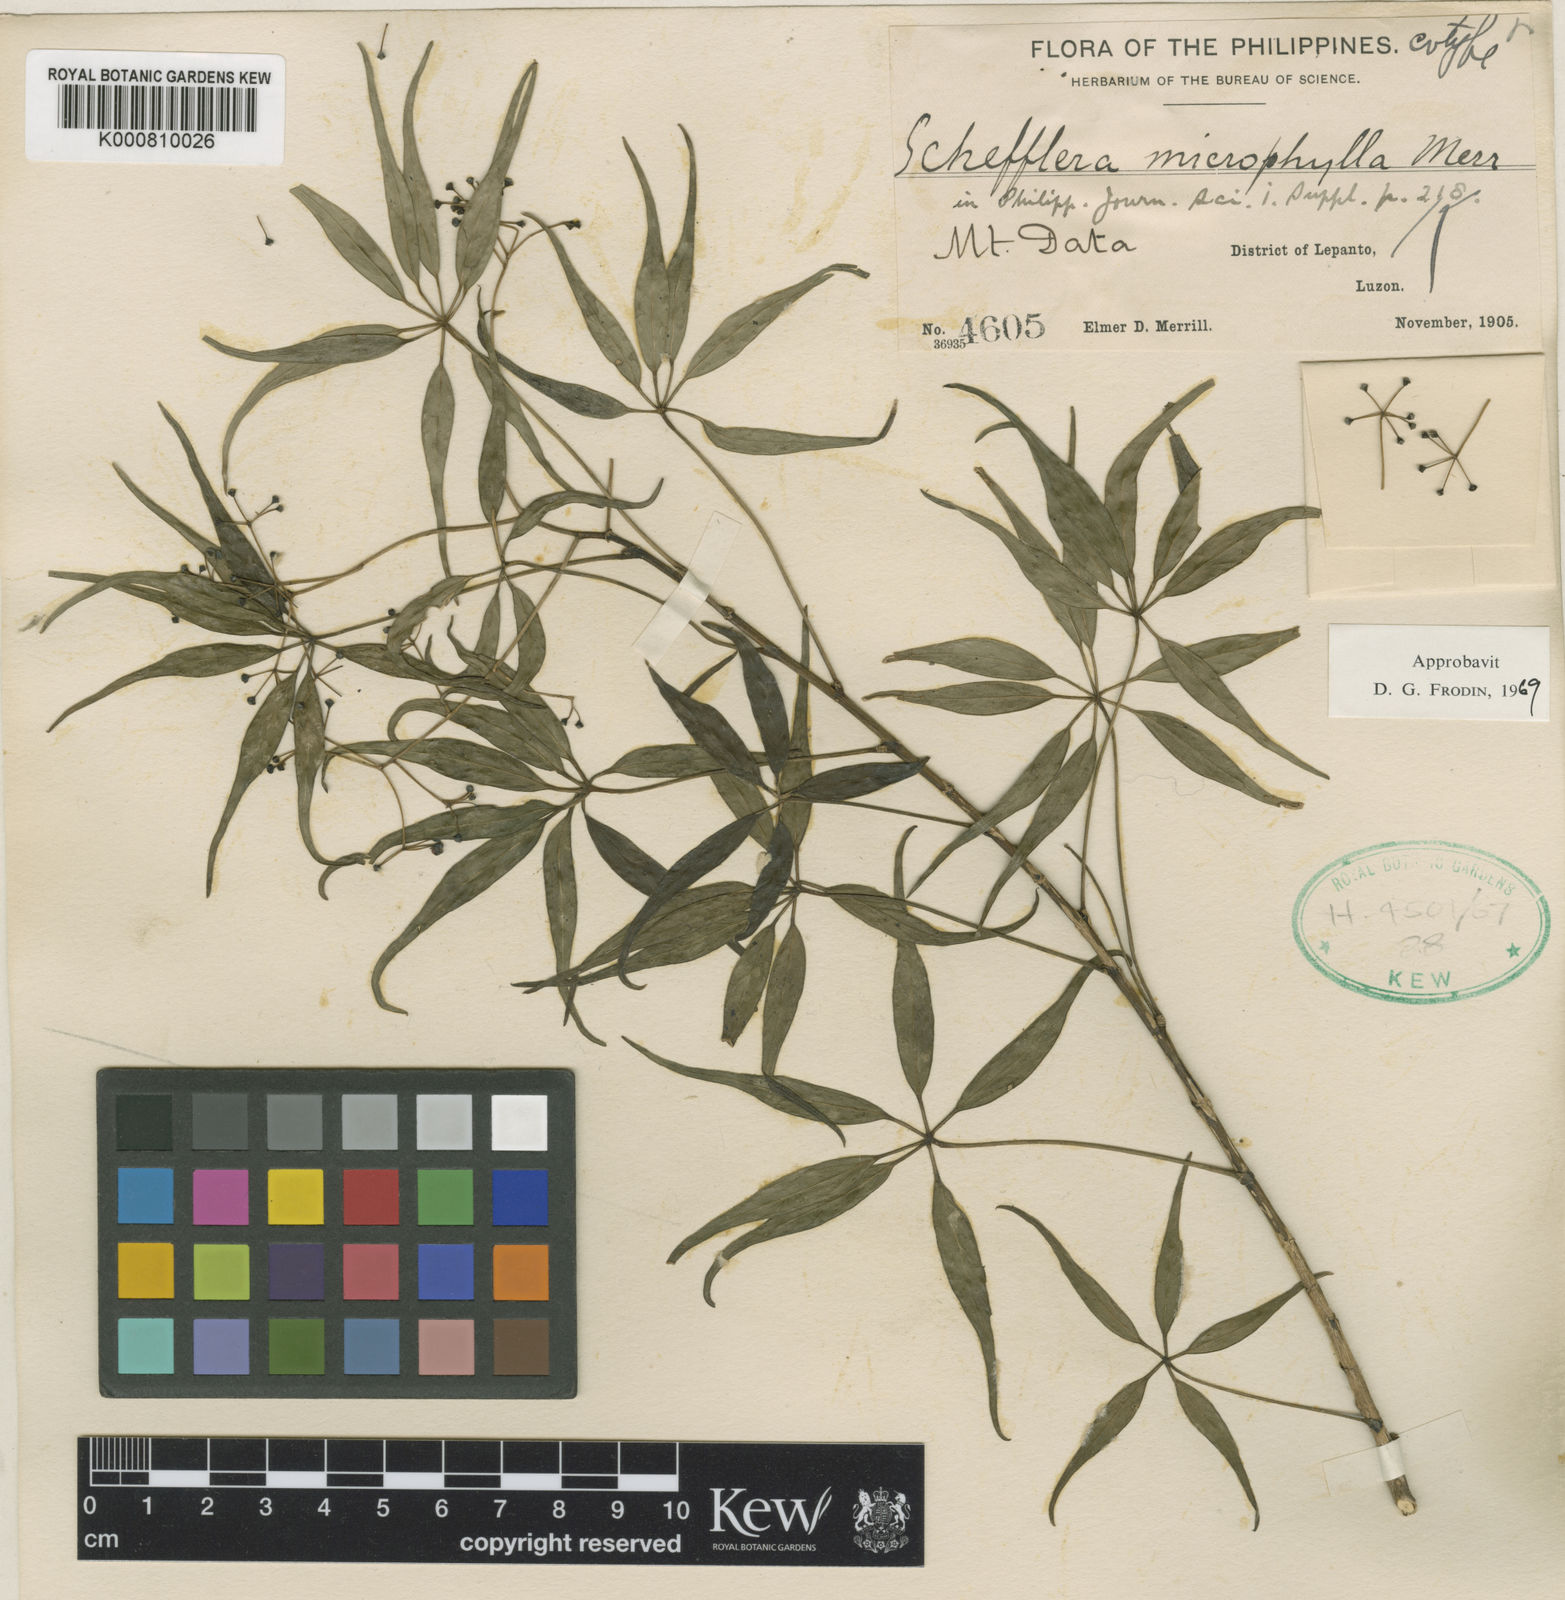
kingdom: Plantae
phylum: Tracheophyta
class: Magnoliopsida
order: Apiales
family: Araliaceae
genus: Heptapleurum
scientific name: Heptapleurum microphyllum
